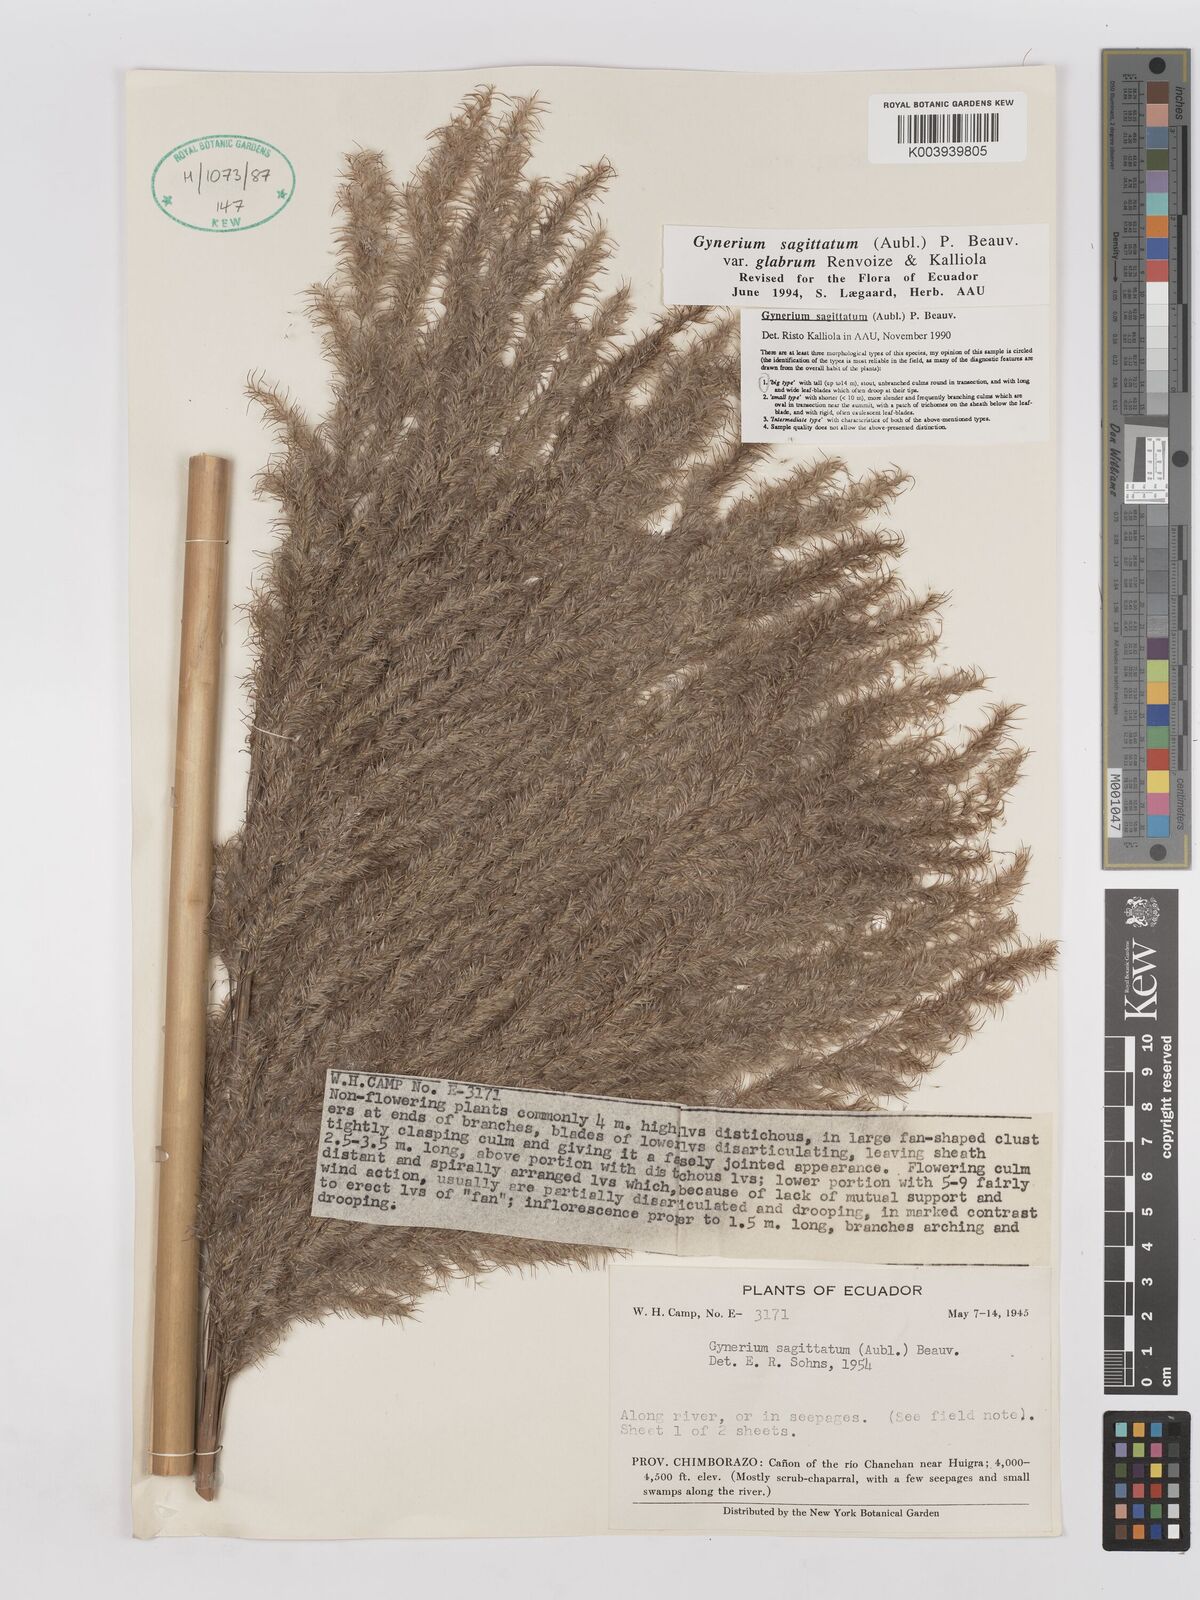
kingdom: Plantae
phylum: Tracheophyta
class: Liliopsida
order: Poales
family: Poaceae
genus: Gynerium
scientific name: Gynerium sagittatum
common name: Wild cane
